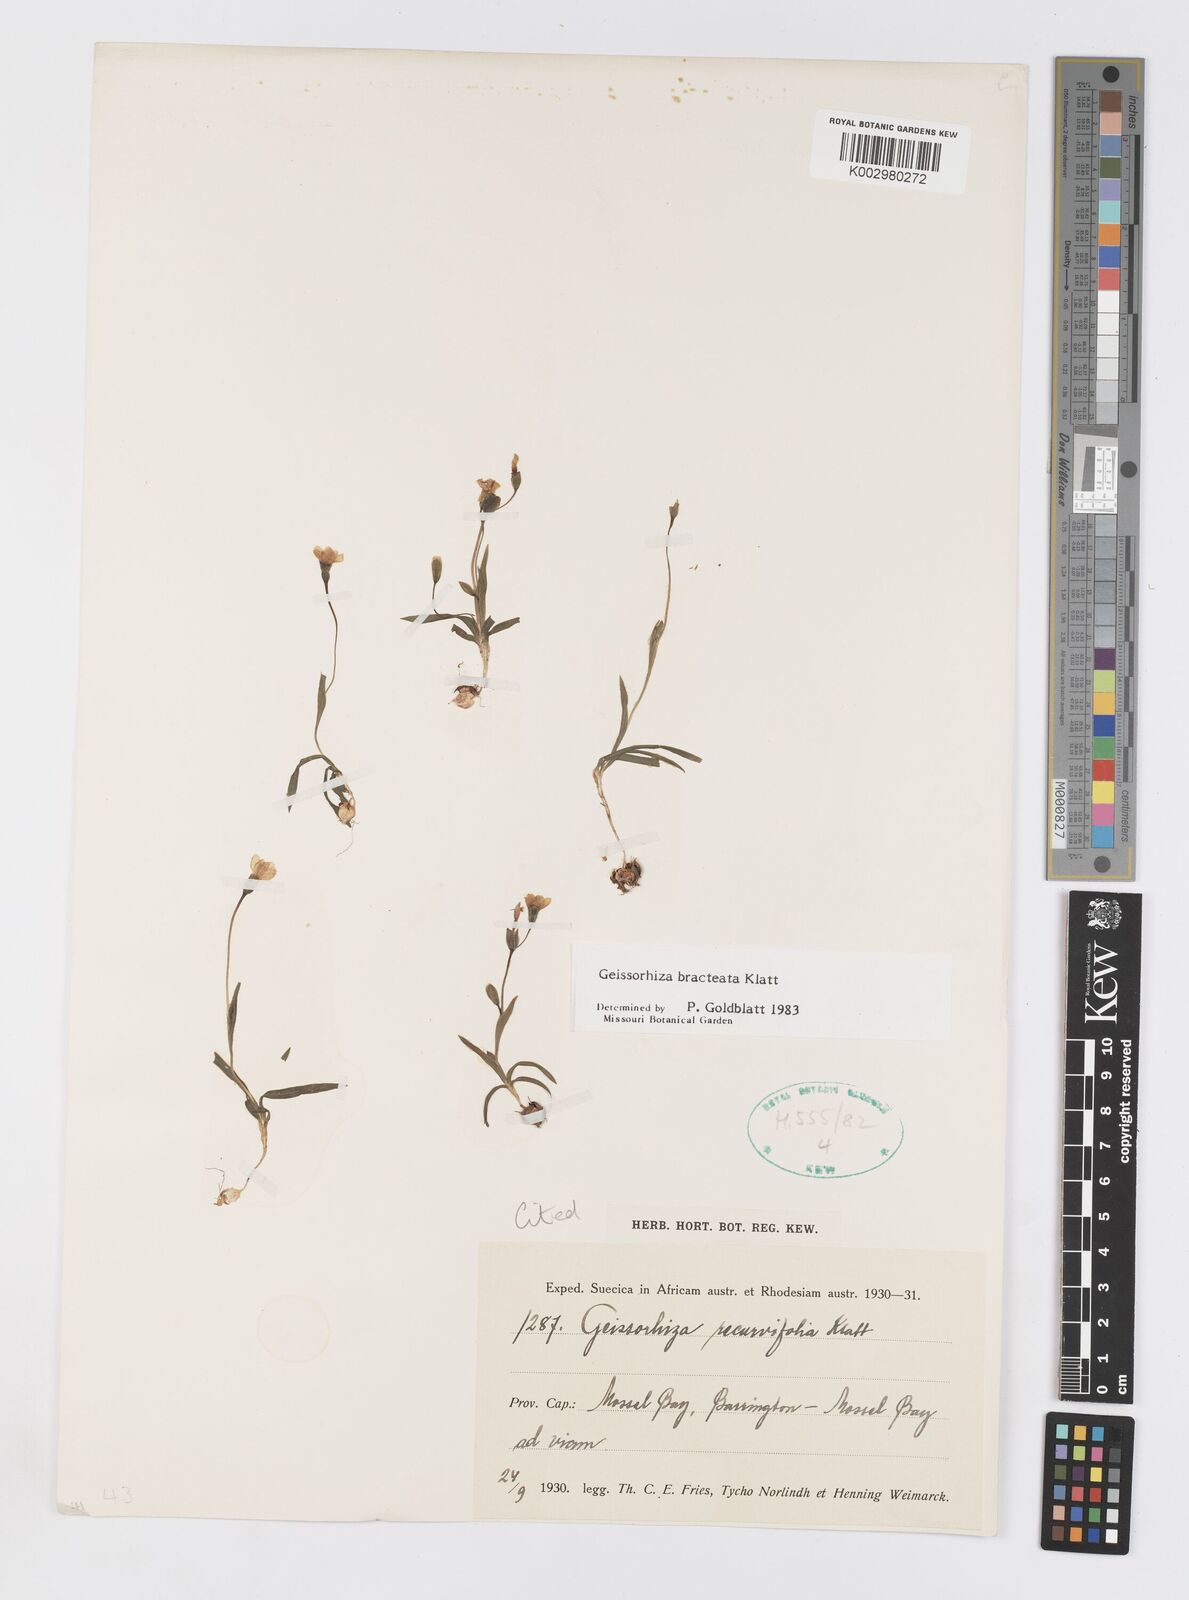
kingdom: Plantae
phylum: Tracheophyta
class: Liliopsida
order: Asparagales
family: Iridaceae
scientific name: Iridaceae
